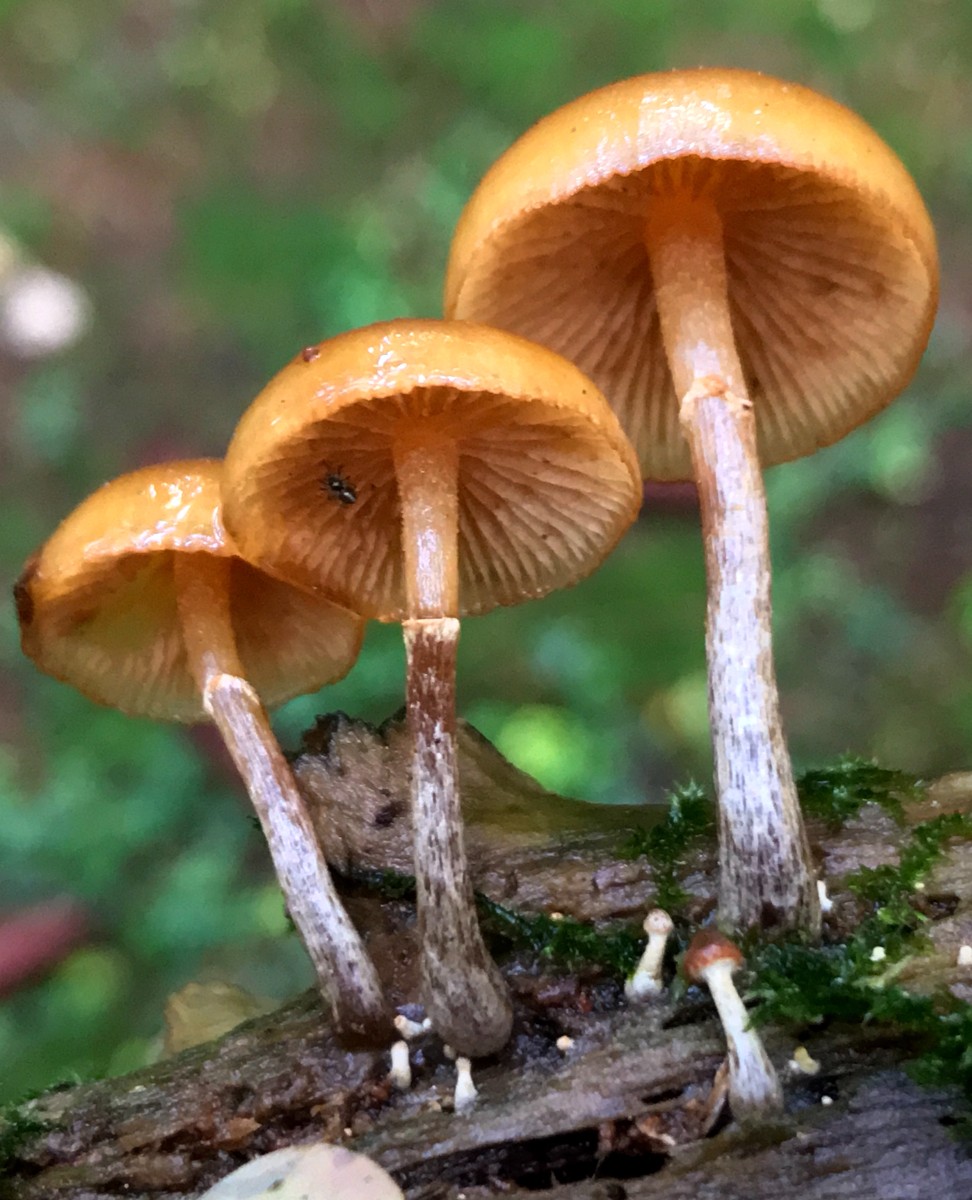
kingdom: Fungi
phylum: Basidiomycota
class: Agaricomycetes
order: Agaricales
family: Hymenogastraceae
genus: Galerina
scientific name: Galerina marginata
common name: randbæltet hjelmhat
